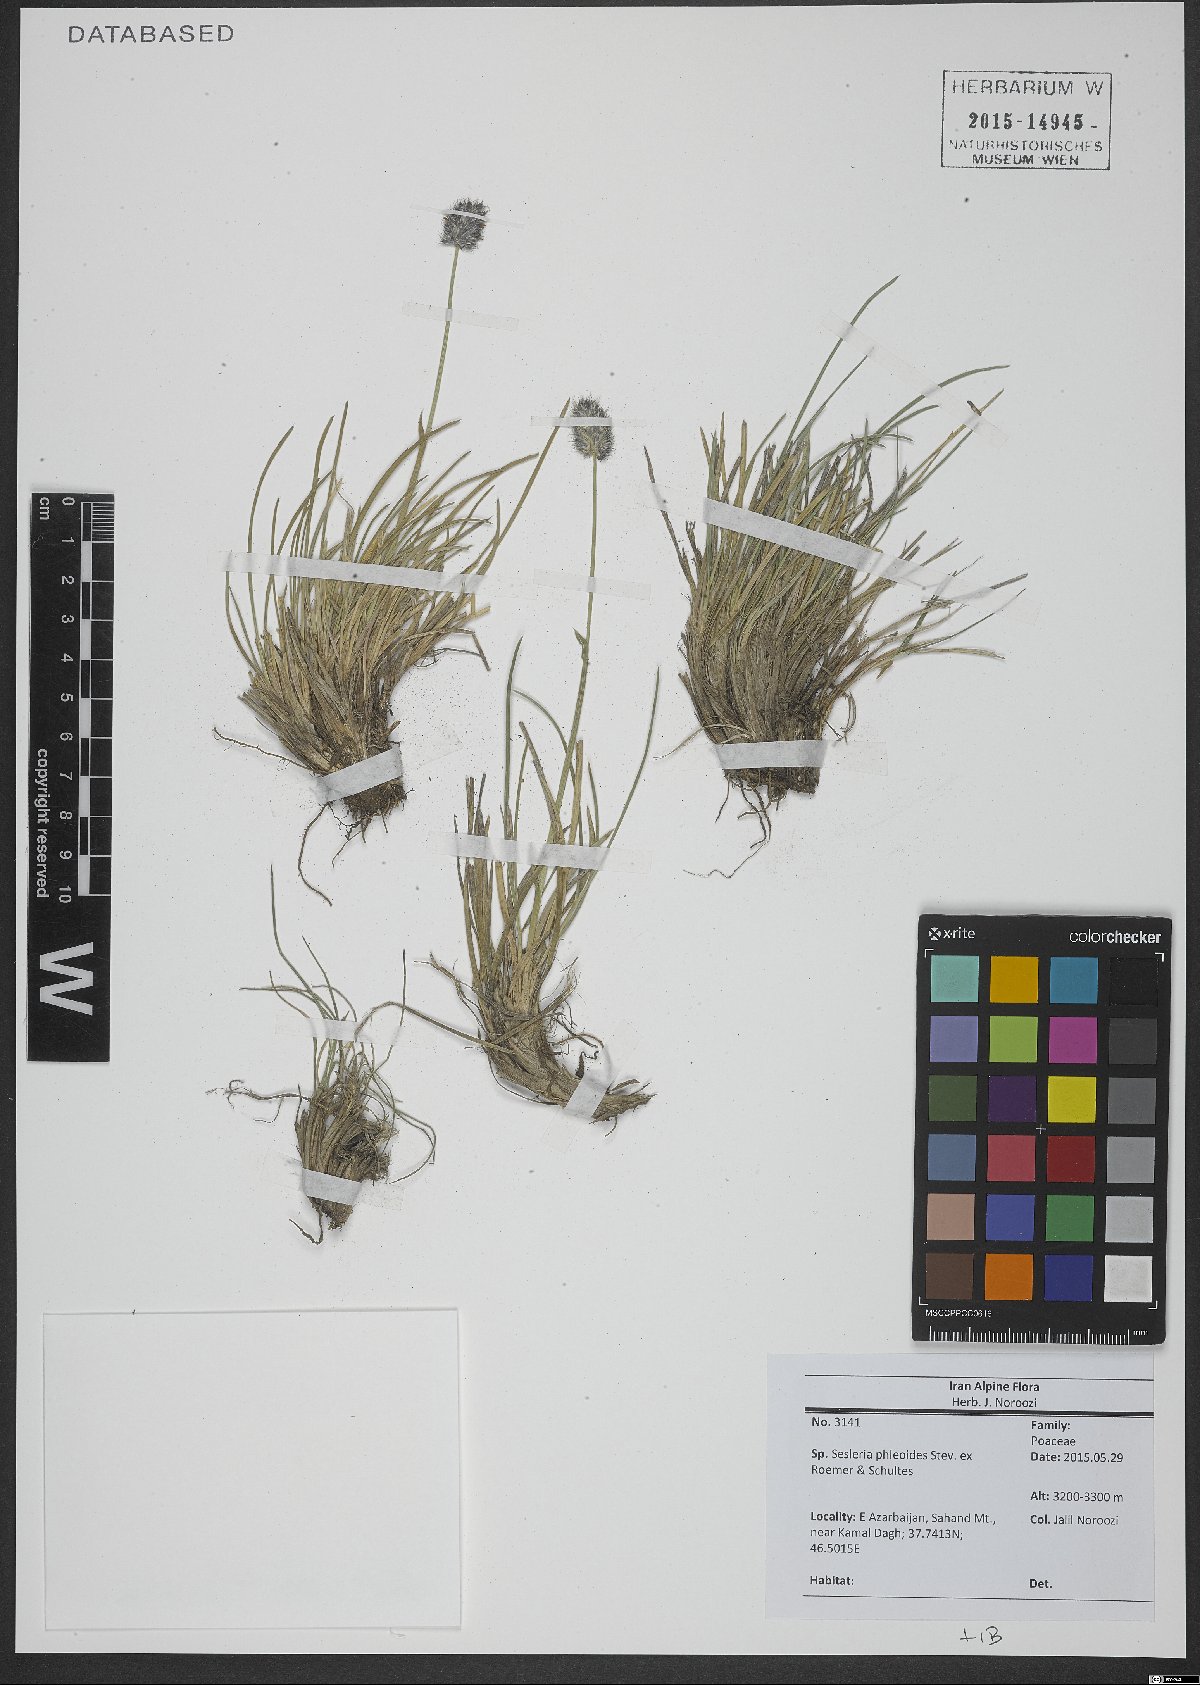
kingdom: Plantae
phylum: Tracheophyta
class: Liliopsida
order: Poales
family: Poaceae
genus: Sesleria
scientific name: Sesleria phleoides
